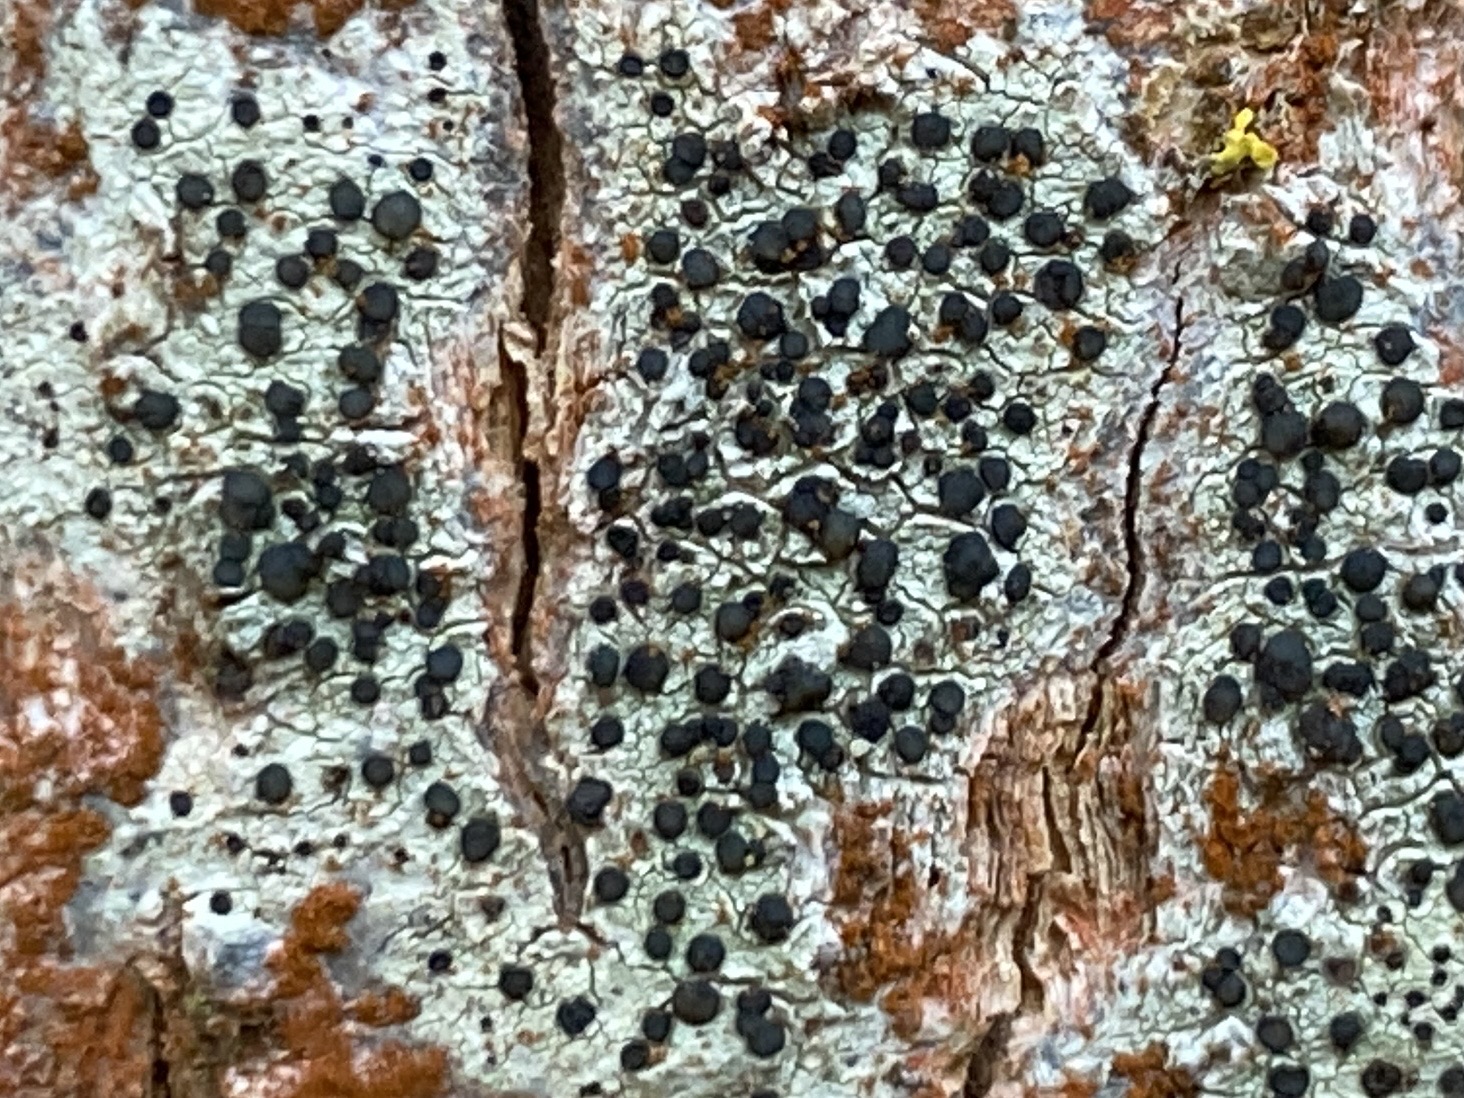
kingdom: Fungi
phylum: Ascomycota
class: Lecanoromycetes
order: Lecanorales
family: Lecanoraceae
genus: Lecidella
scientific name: Lecidella elaeochroma
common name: grågrøn skivelav
